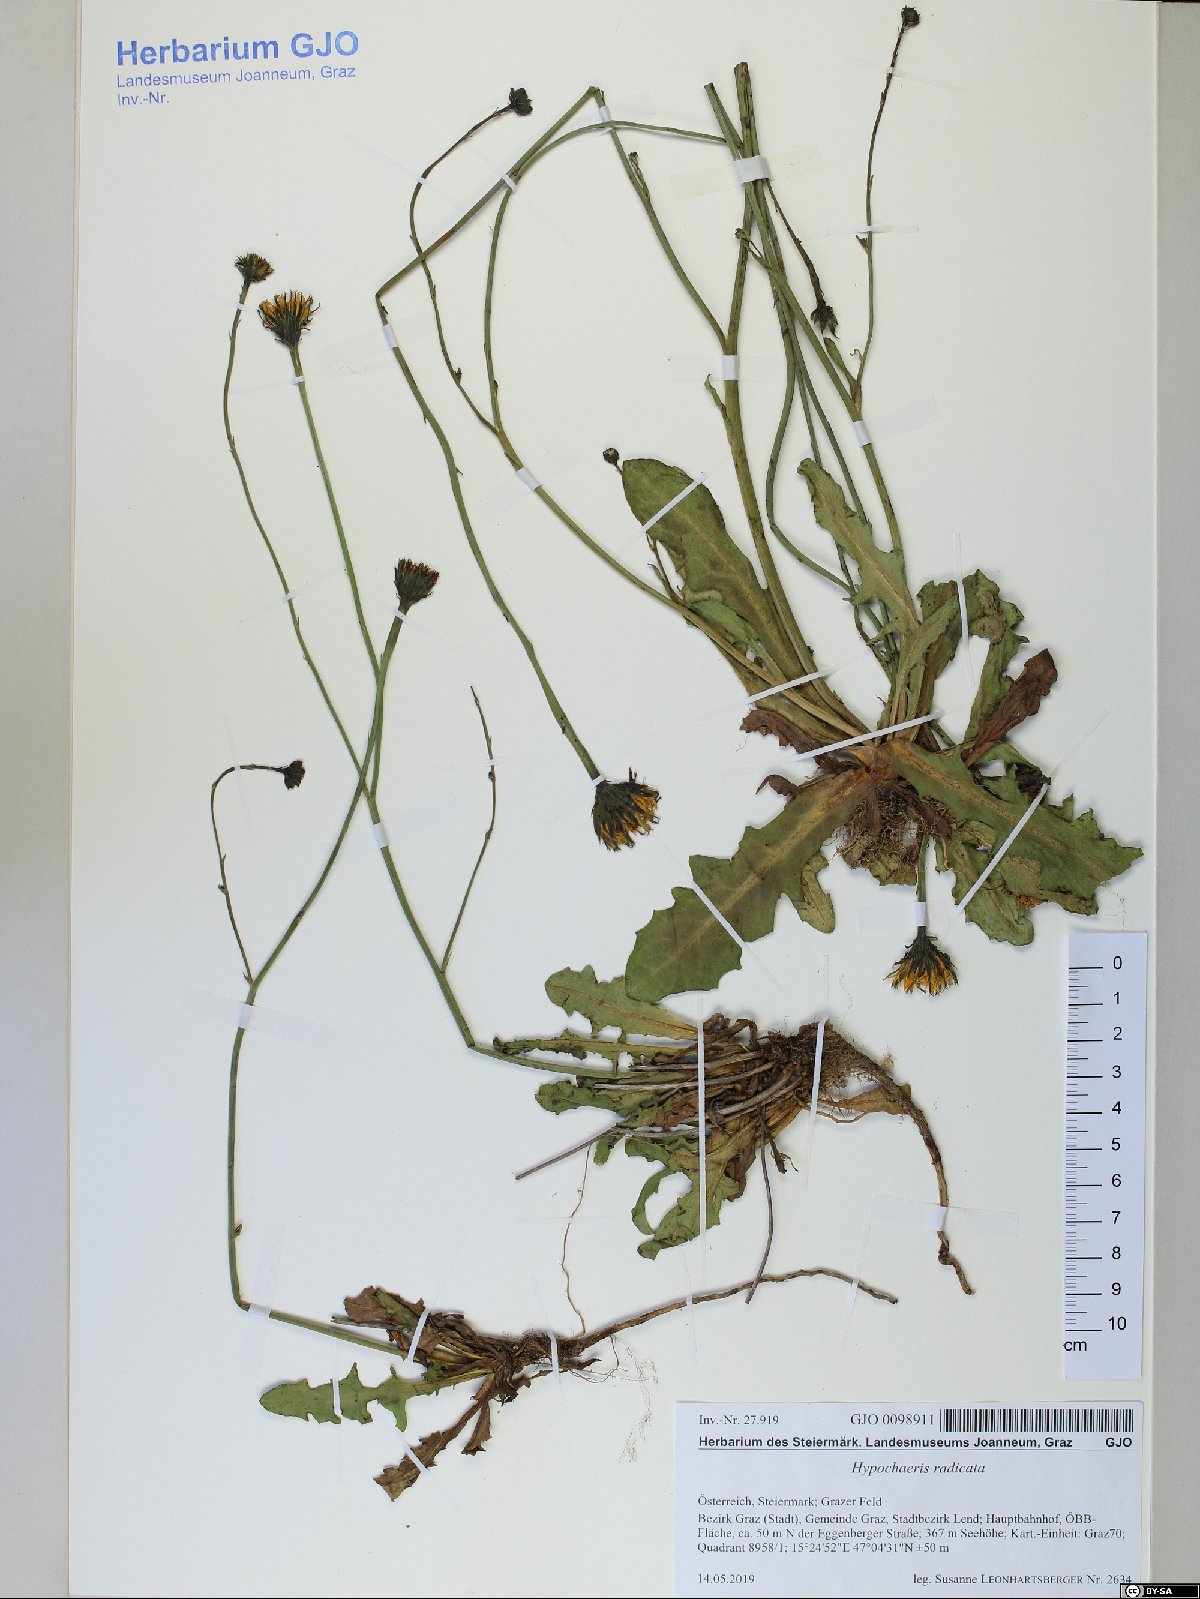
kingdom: Plantae
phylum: Tracheophyta
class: Magnoliopsida
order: Asterales
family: Asteraceae
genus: Hypochaeris
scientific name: Hypochaeris radicata
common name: Flatweed
